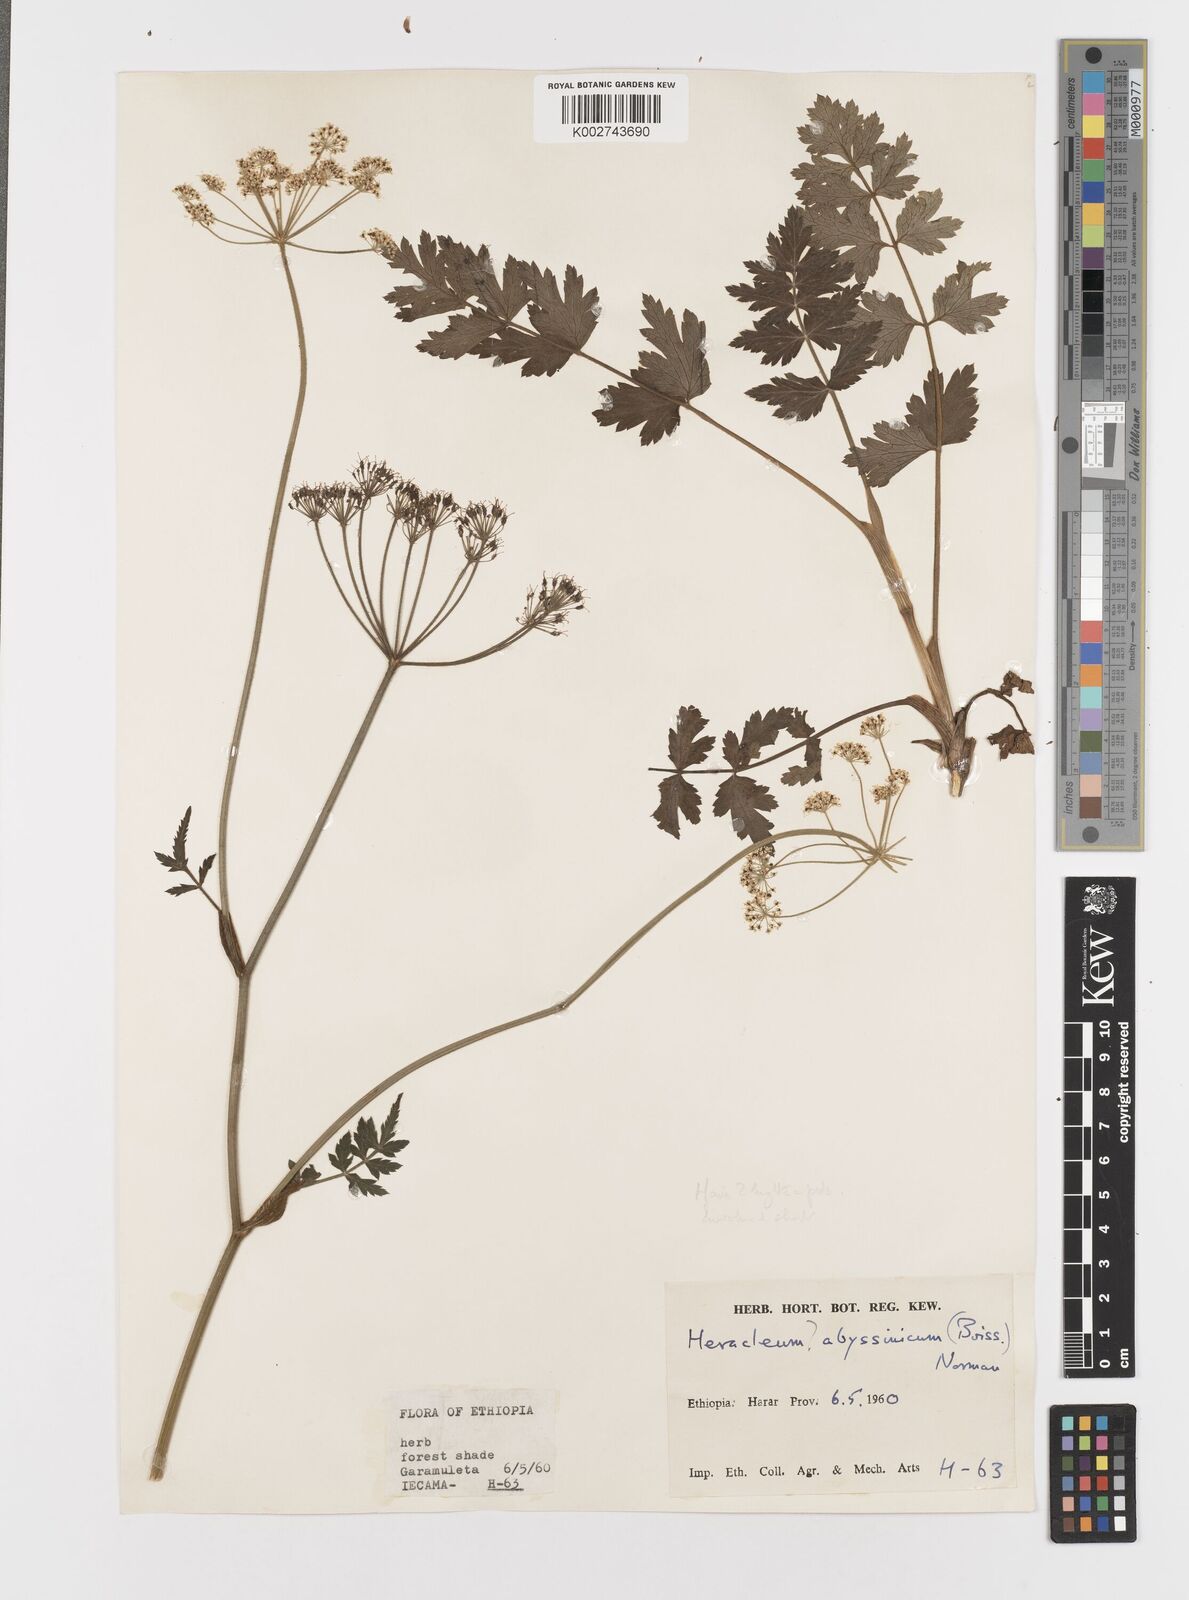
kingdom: Plantae
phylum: Tracheophyta
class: Magnoliopsida
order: Apiales
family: Apiaceae
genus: Heracleum
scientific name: Heracleum abyssinicum
